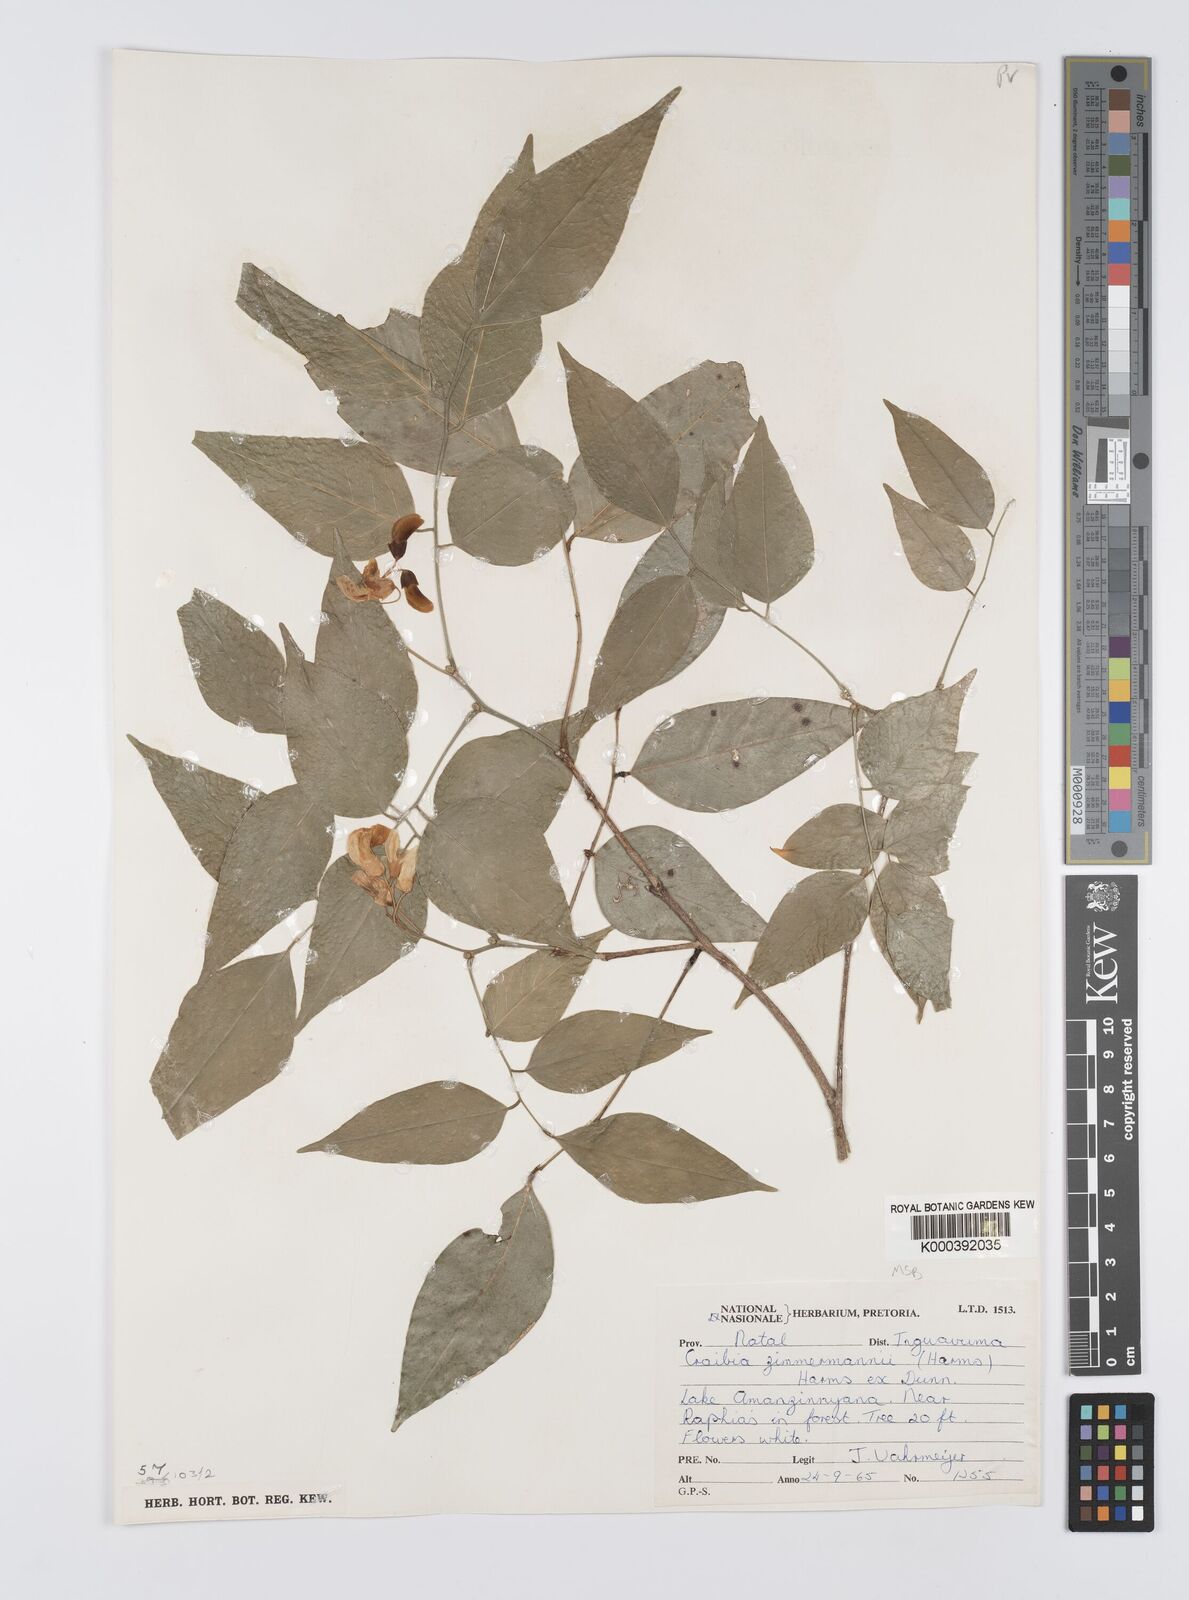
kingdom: Plantae
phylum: Tracheophyta
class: Magnoliopsida
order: Fabales
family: Fabaceae
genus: Craibia
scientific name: Craibia zimmermannii
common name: Sandforest pea-wood
